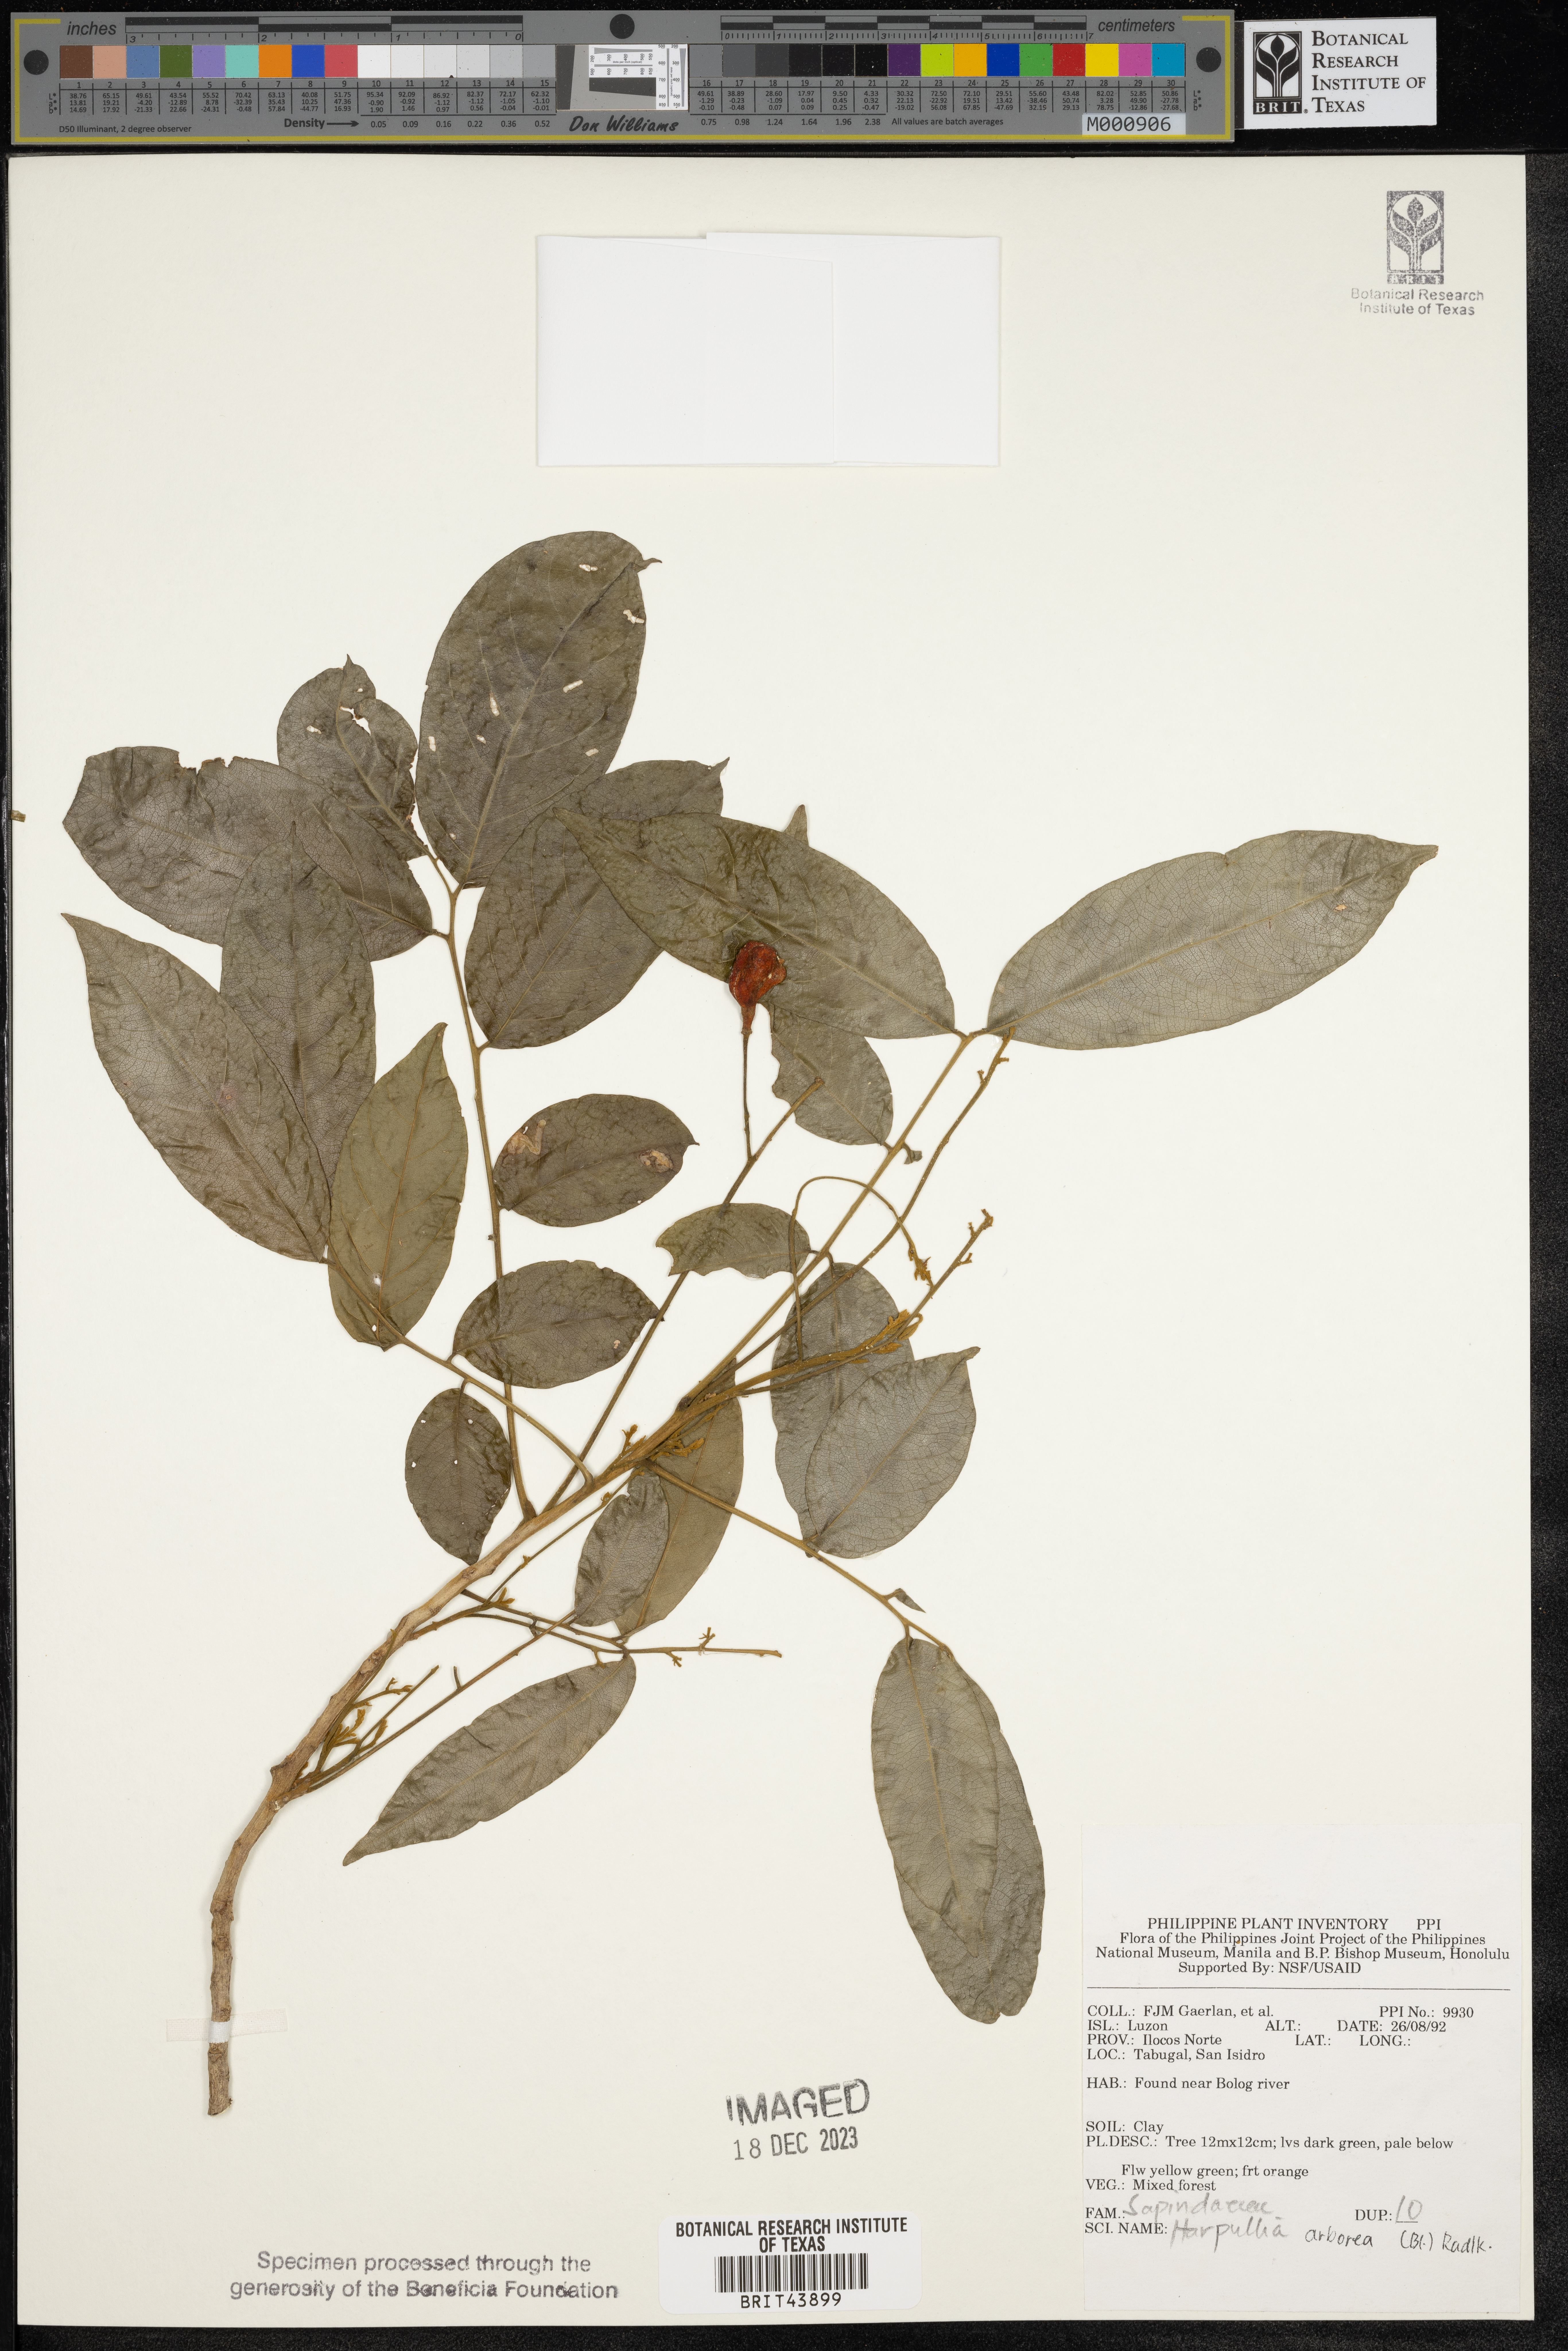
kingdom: Plantae
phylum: Tracheophyta
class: Magnoliopsida
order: Sapindales
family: Sapindaceae
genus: Harpullia
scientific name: Harpullia arborea
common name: Tulip-wood tree
